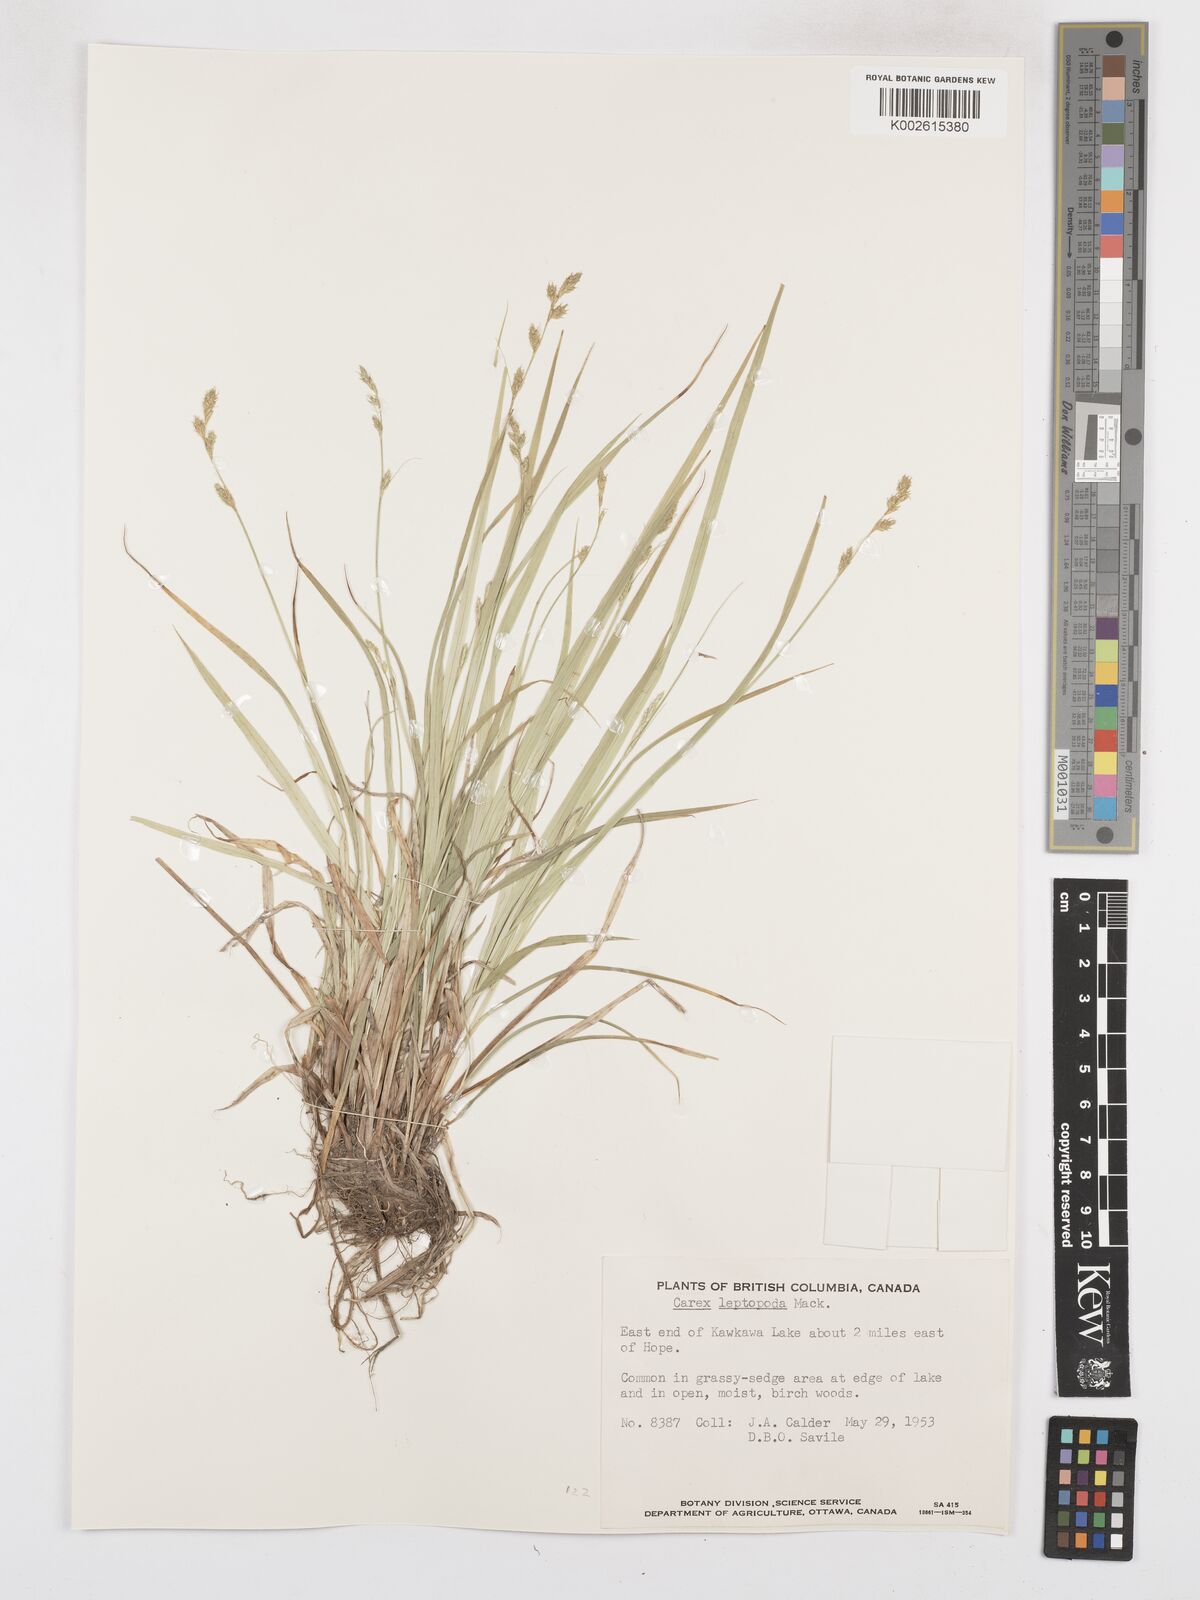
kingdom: Plantae
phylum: Tracheophyta
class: Liliopsida
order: Poales
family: Cyperaceae
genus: Carex
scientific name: Carex leptopoda
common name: Short-scale sedge
